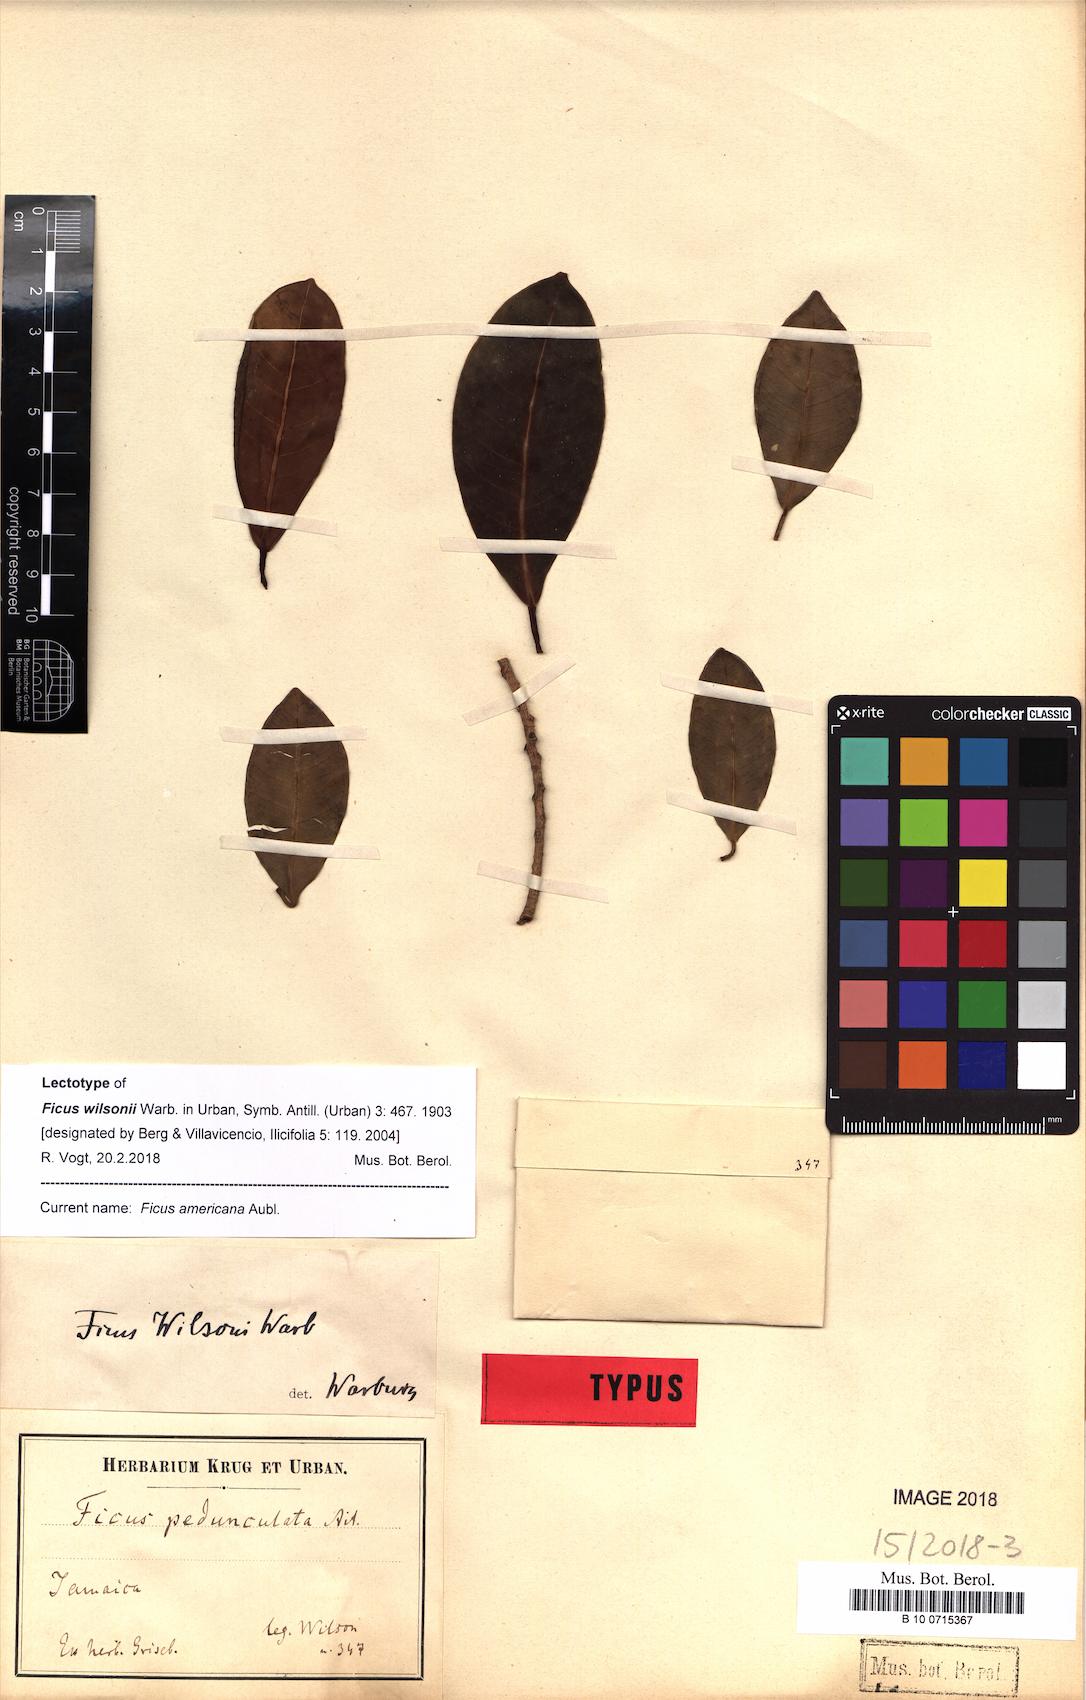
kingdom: Plantae
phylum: Tracheophyta
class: Magnoliopsida
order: Rosales
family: Moraceae
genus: Ficus
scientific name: Ficus americana
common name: Jamaican cherry fig
